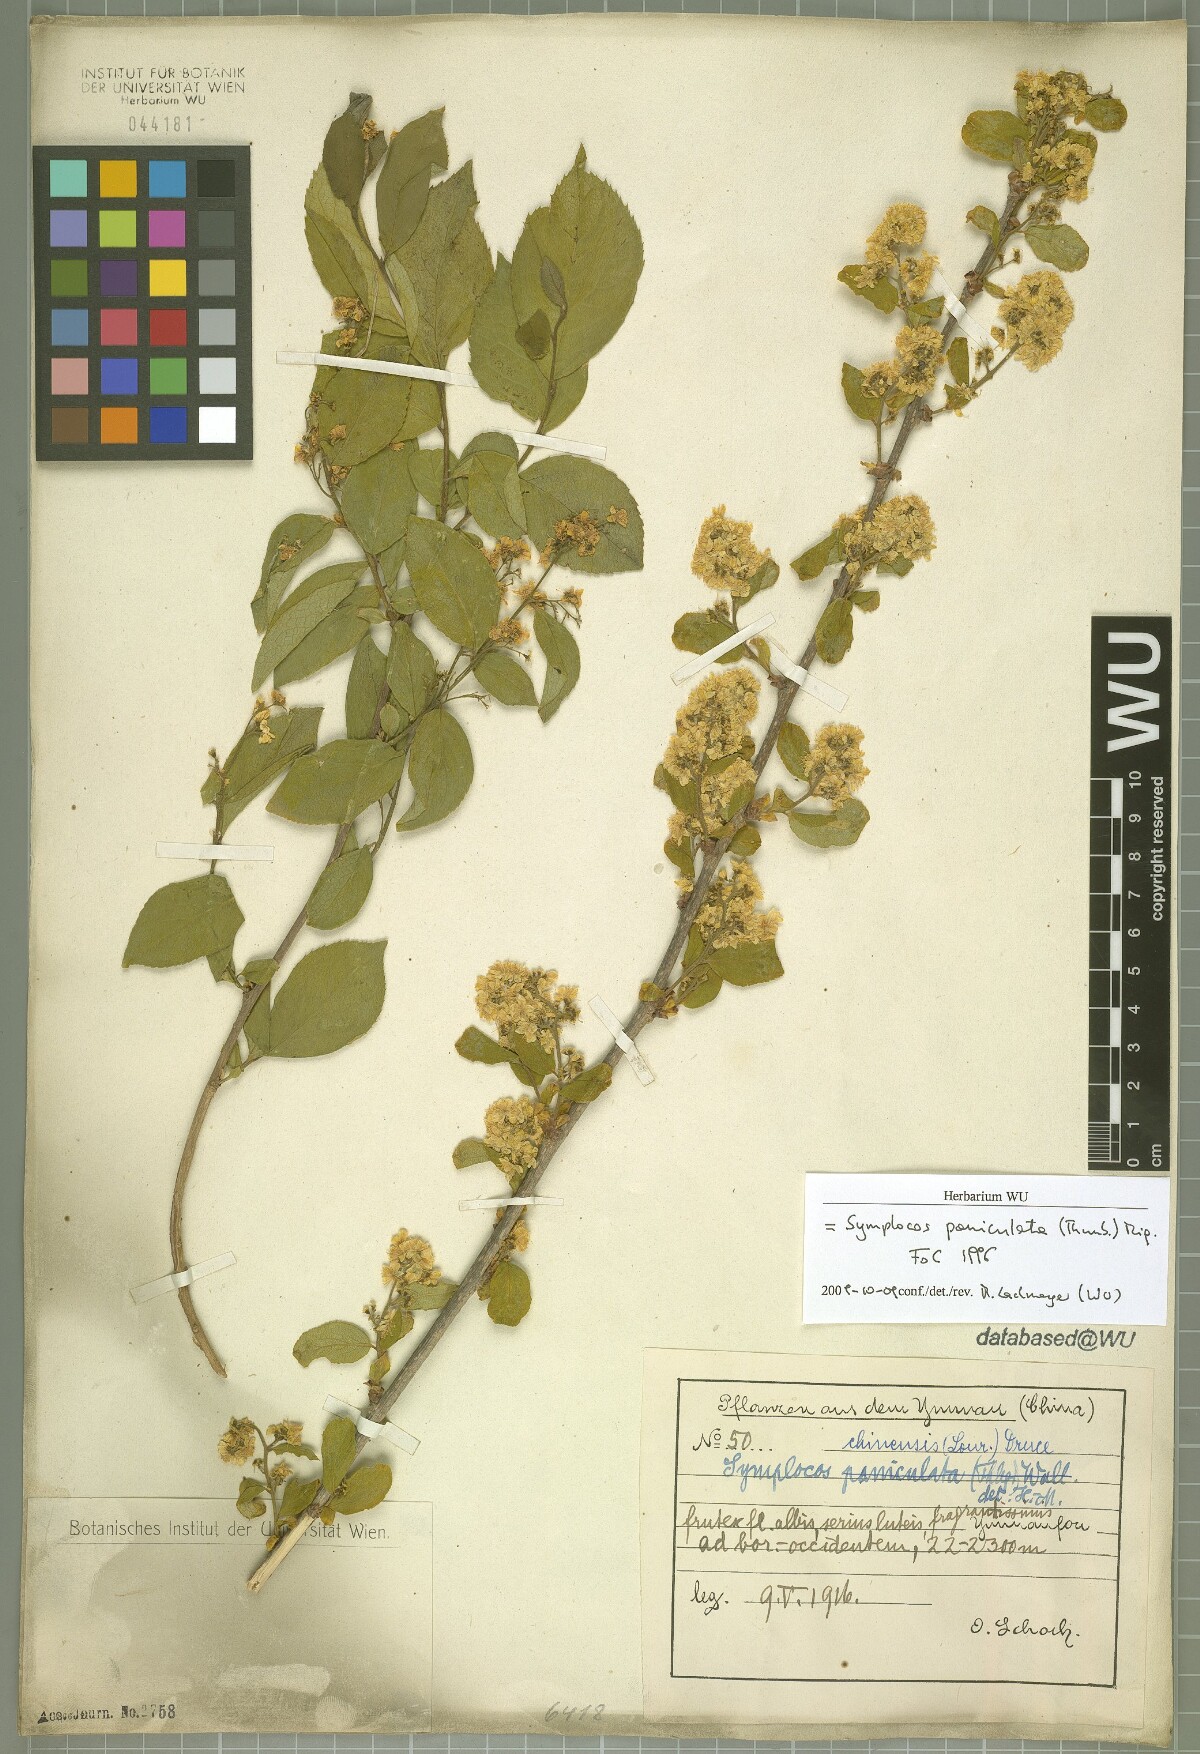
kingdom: Plantae
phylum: Tracheophyta
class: Magnoliopsida
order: Ericales
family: Symplocaceae
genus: Symplocos
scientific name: Symplocos paniculata
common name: Sapphire-berry
